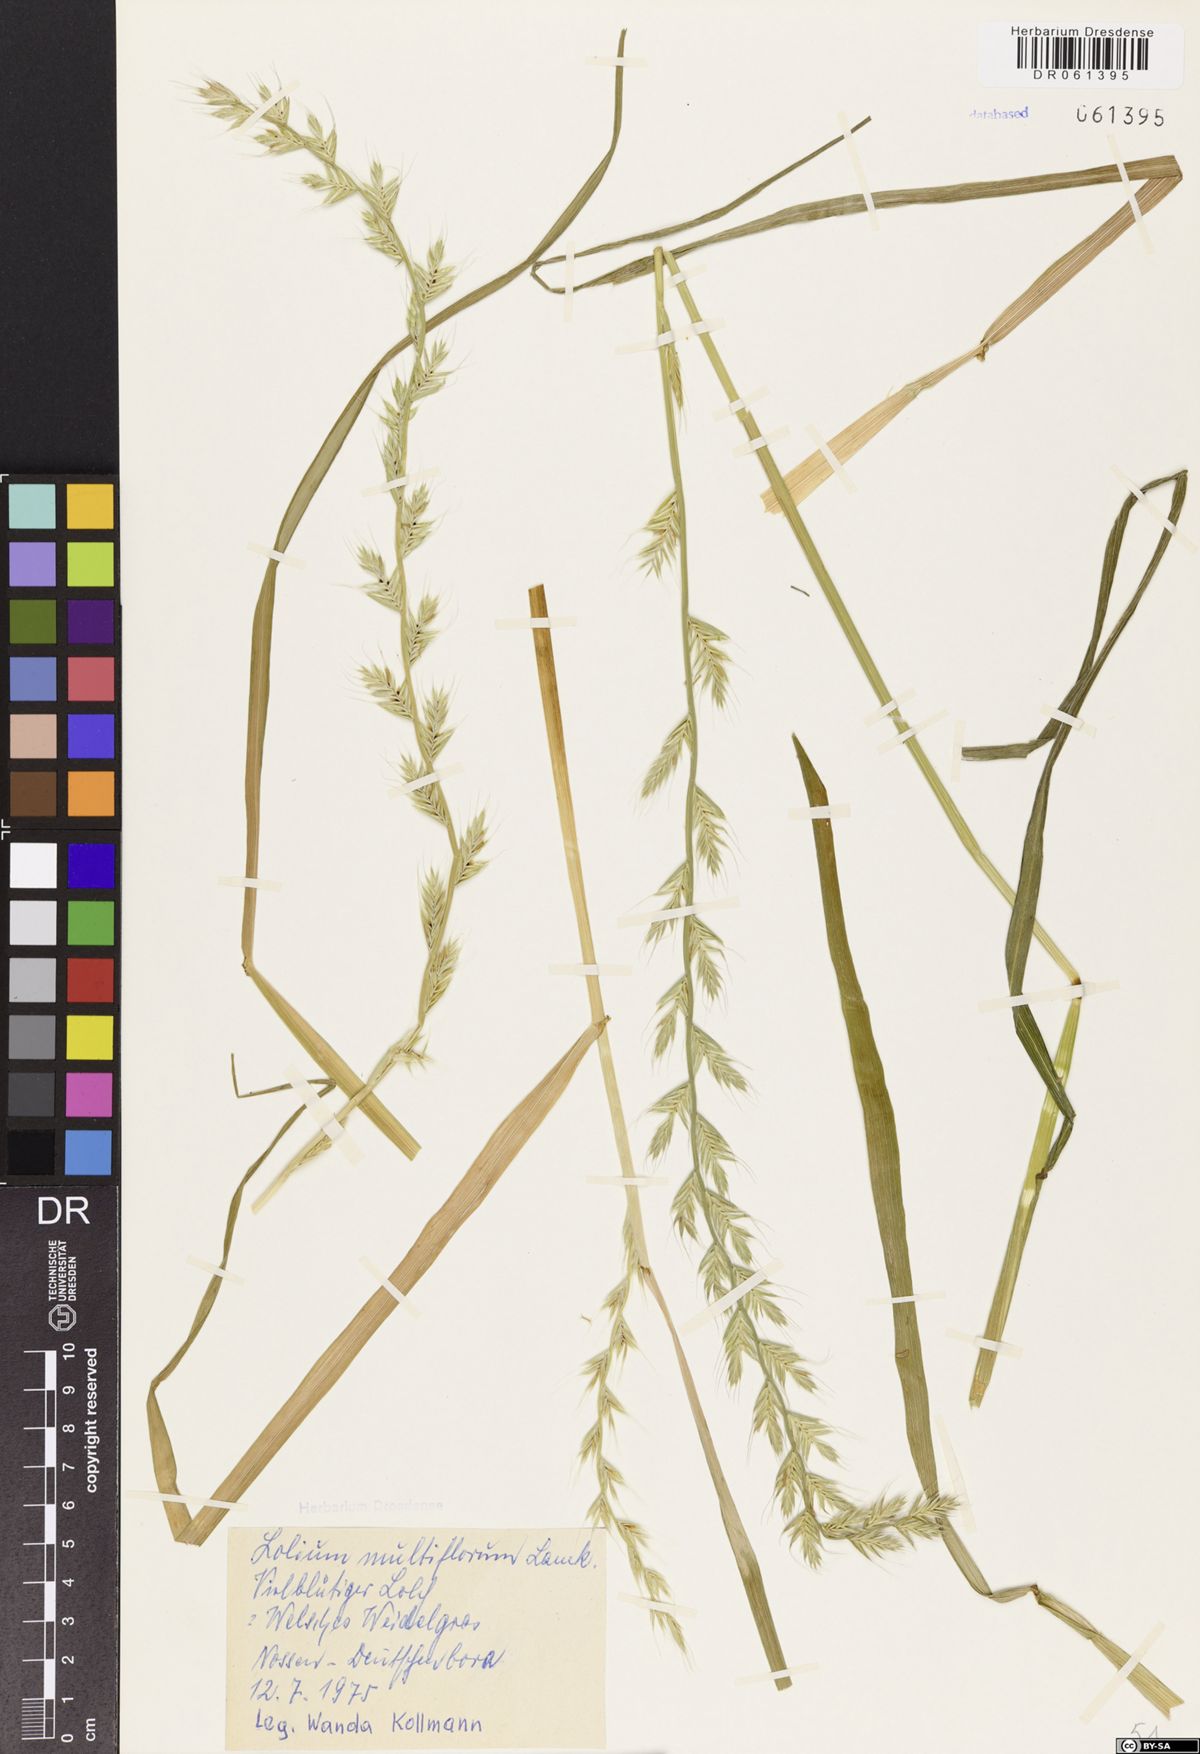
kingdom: Plantae
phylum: Tracheophyta
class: Liliopsida
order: Poales
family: Poaceae
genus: Lolium
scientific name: Lolium multiflorum
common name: Annual ryegrass
